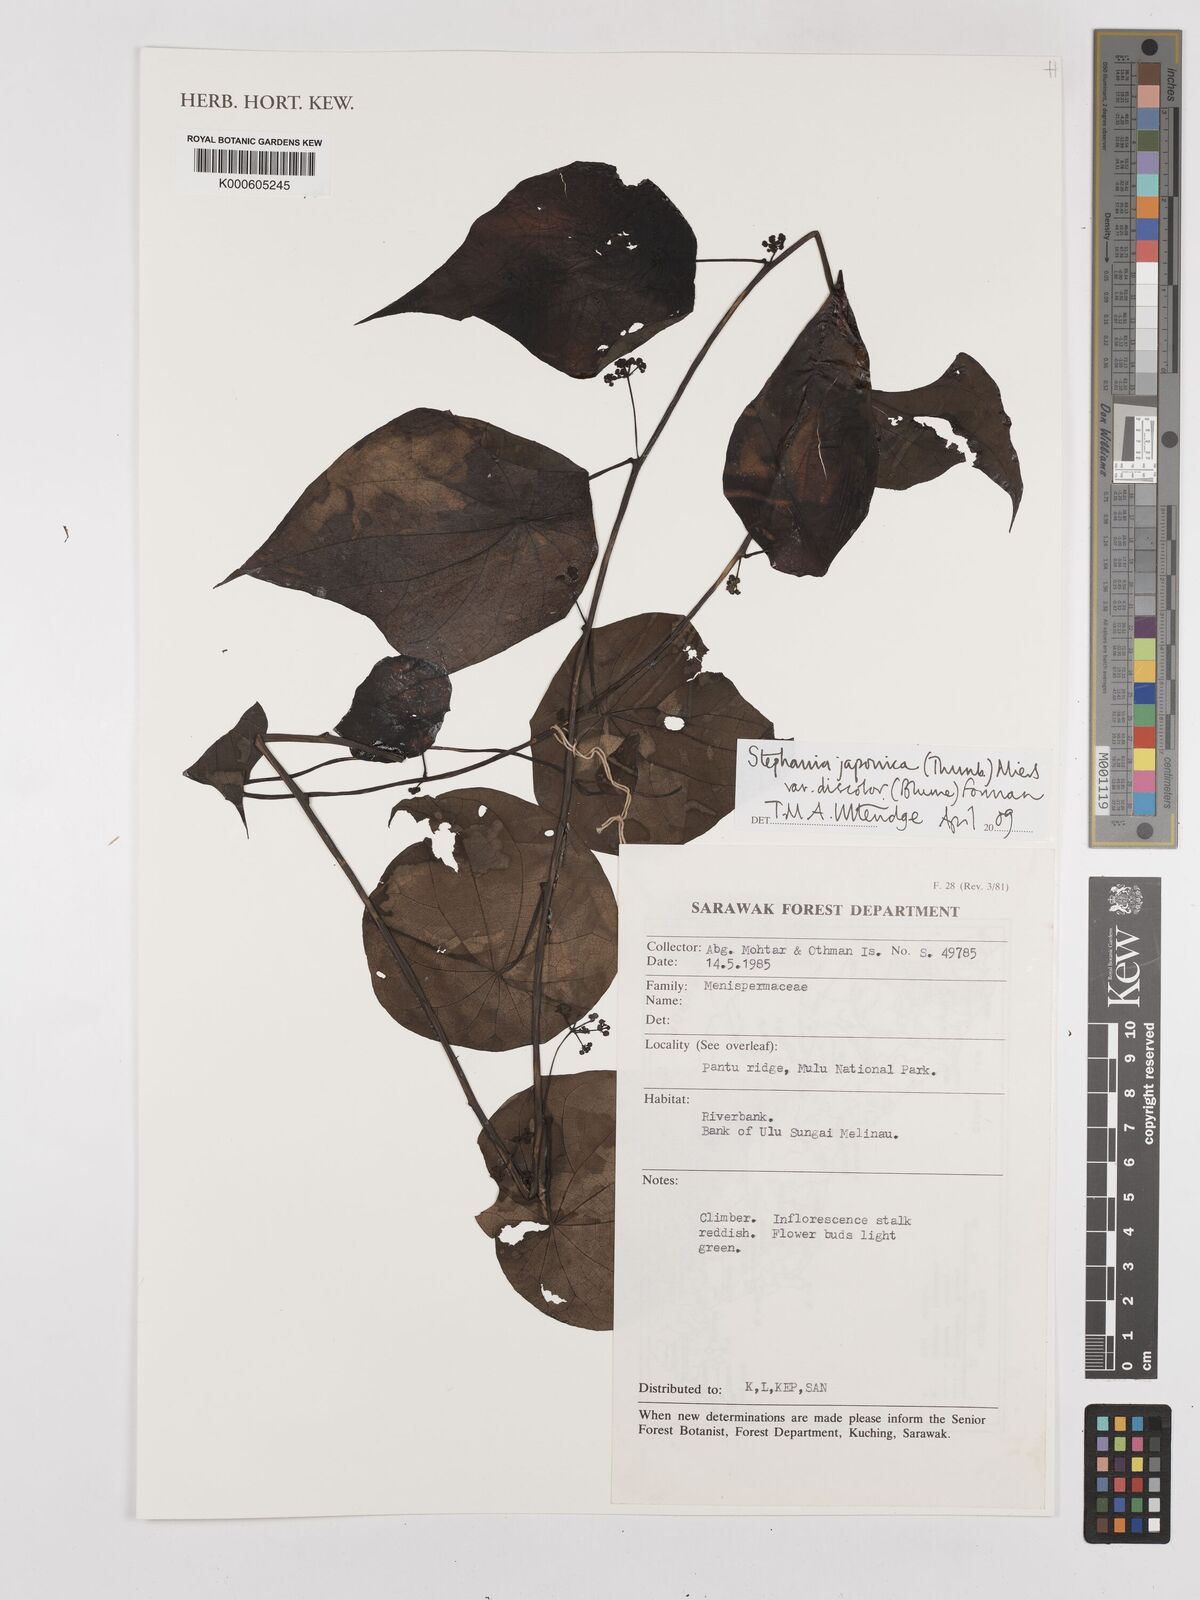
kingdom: Plantae
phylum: Tracheophyta
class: Magnoliopsida
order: Ranunculales
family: Menispermaceae
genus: Stephania
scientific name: Stephania japonica
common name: Snake vine
